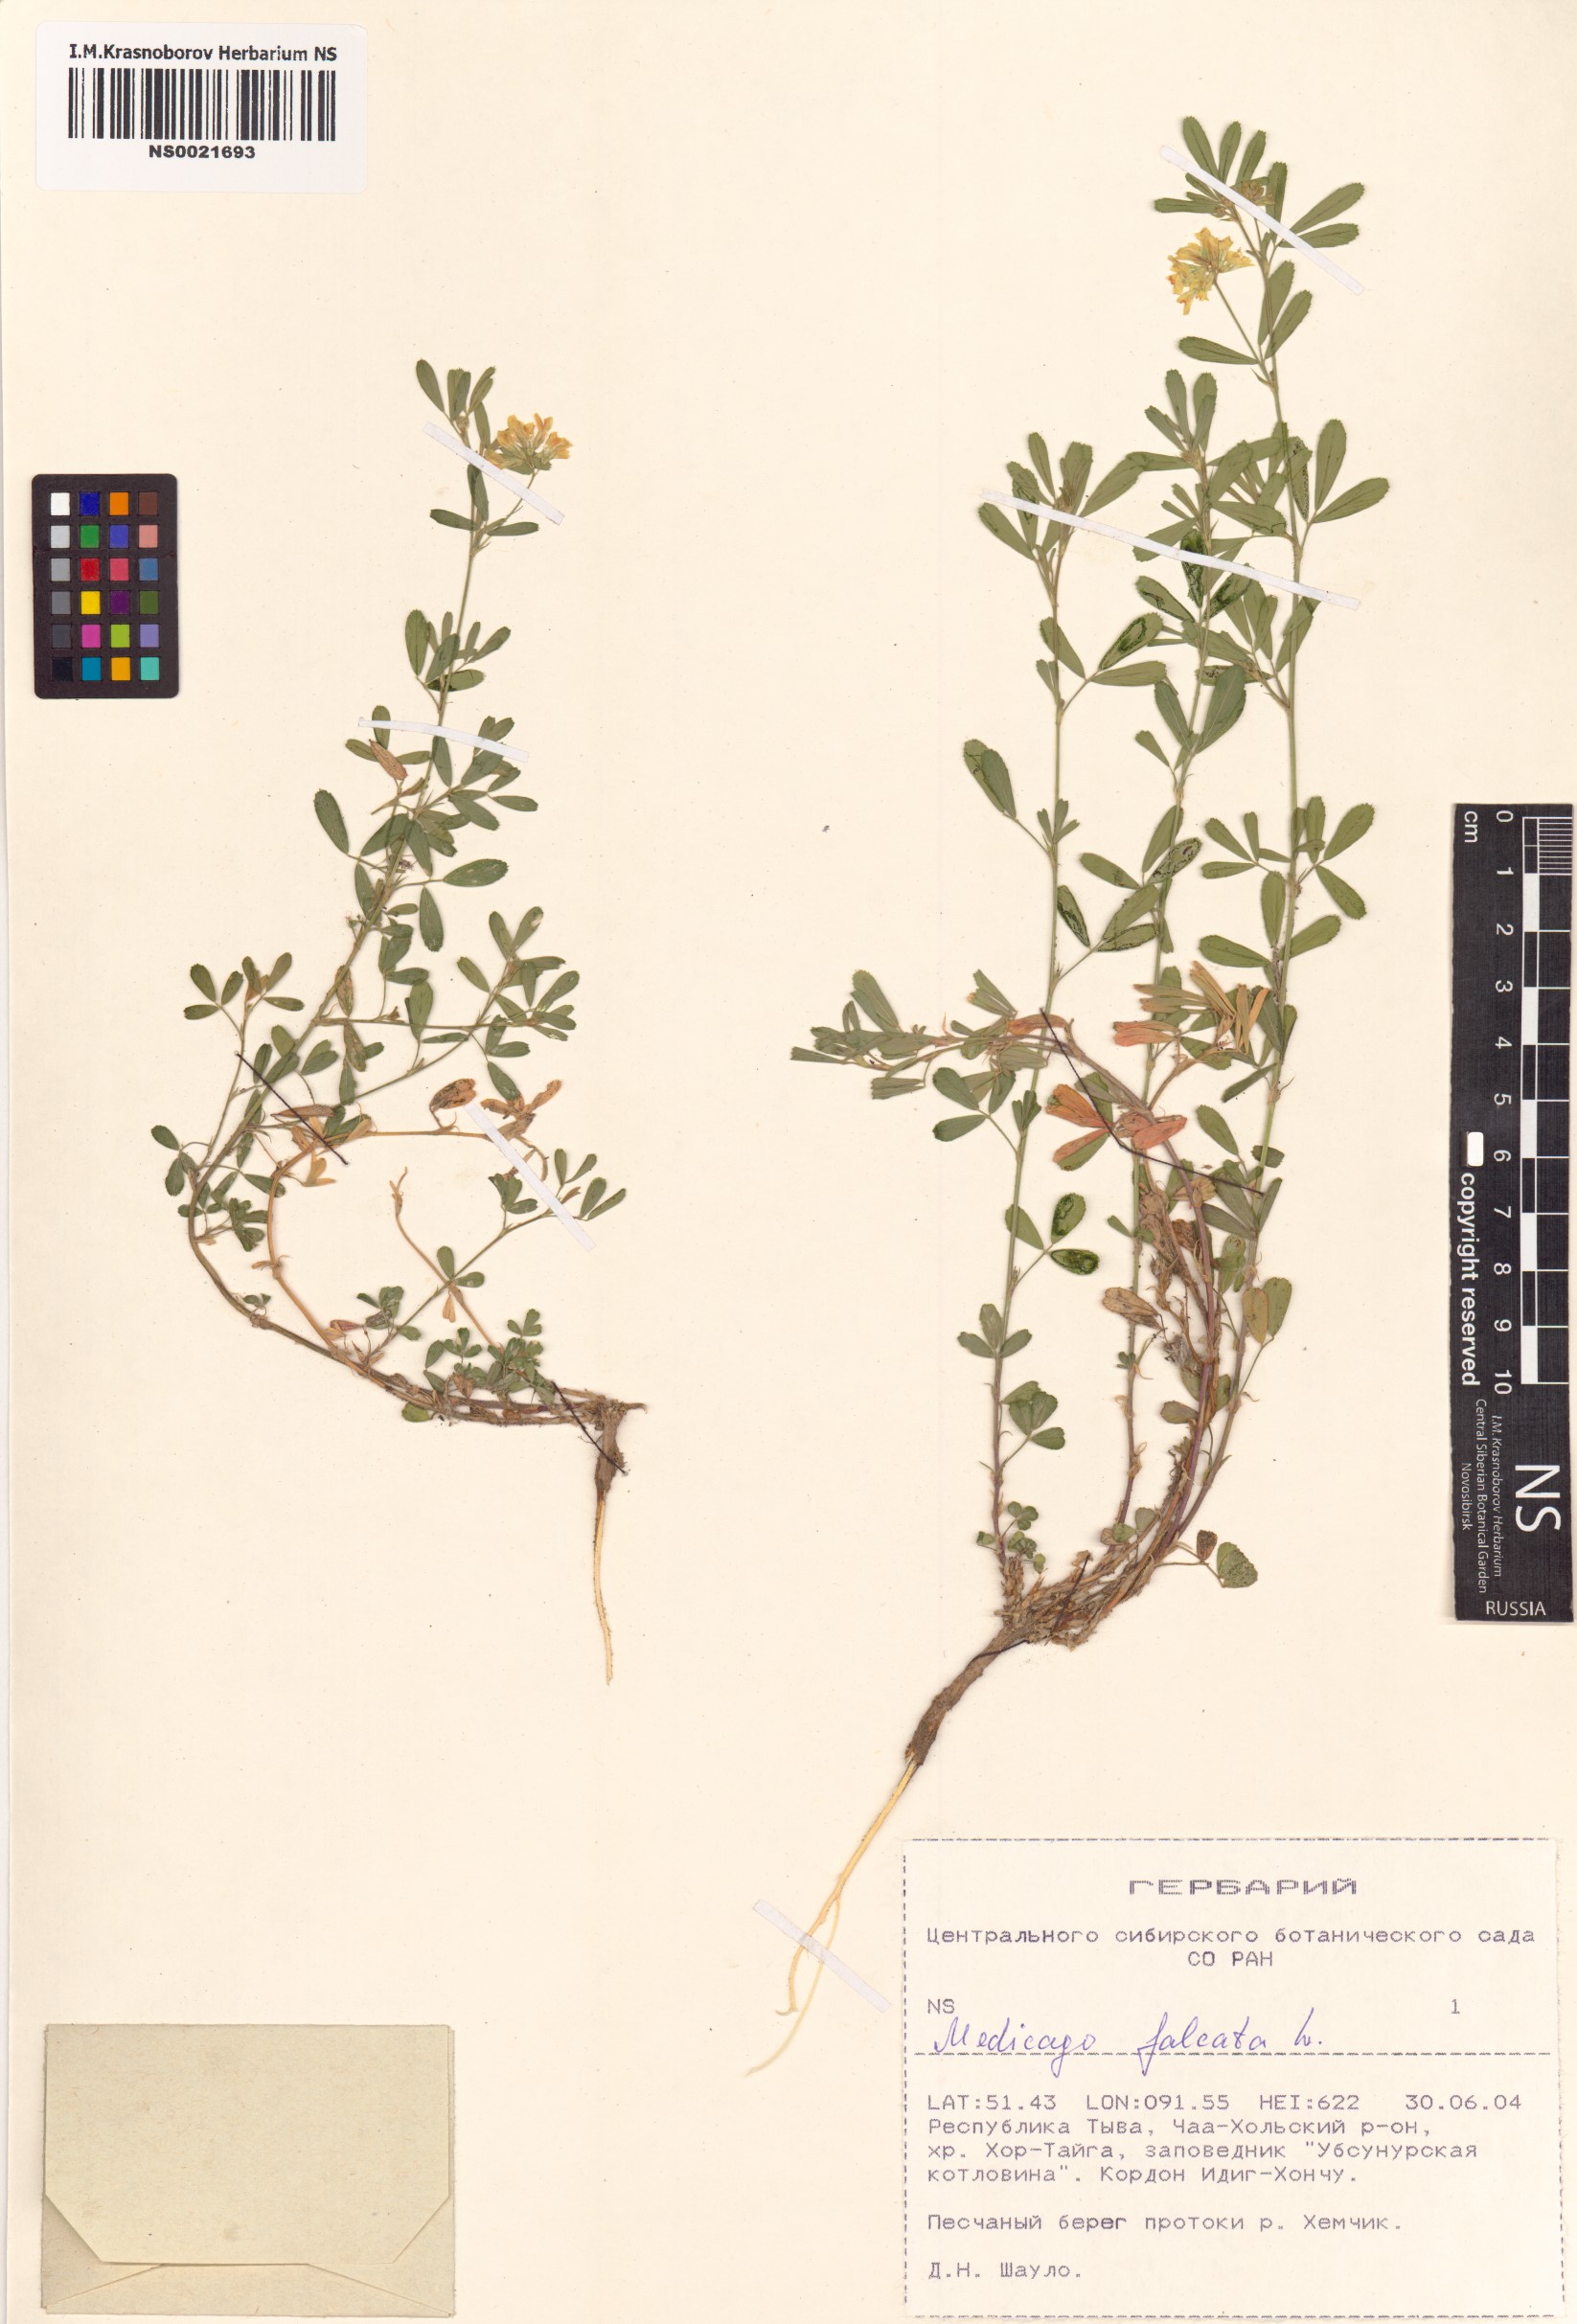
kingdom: Plantae
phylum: Tracheophyta
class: Magnoliopsida
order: Fabales
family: Fabaceae
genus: Medicago
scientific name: Medicago falcata
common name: Sickle medick
